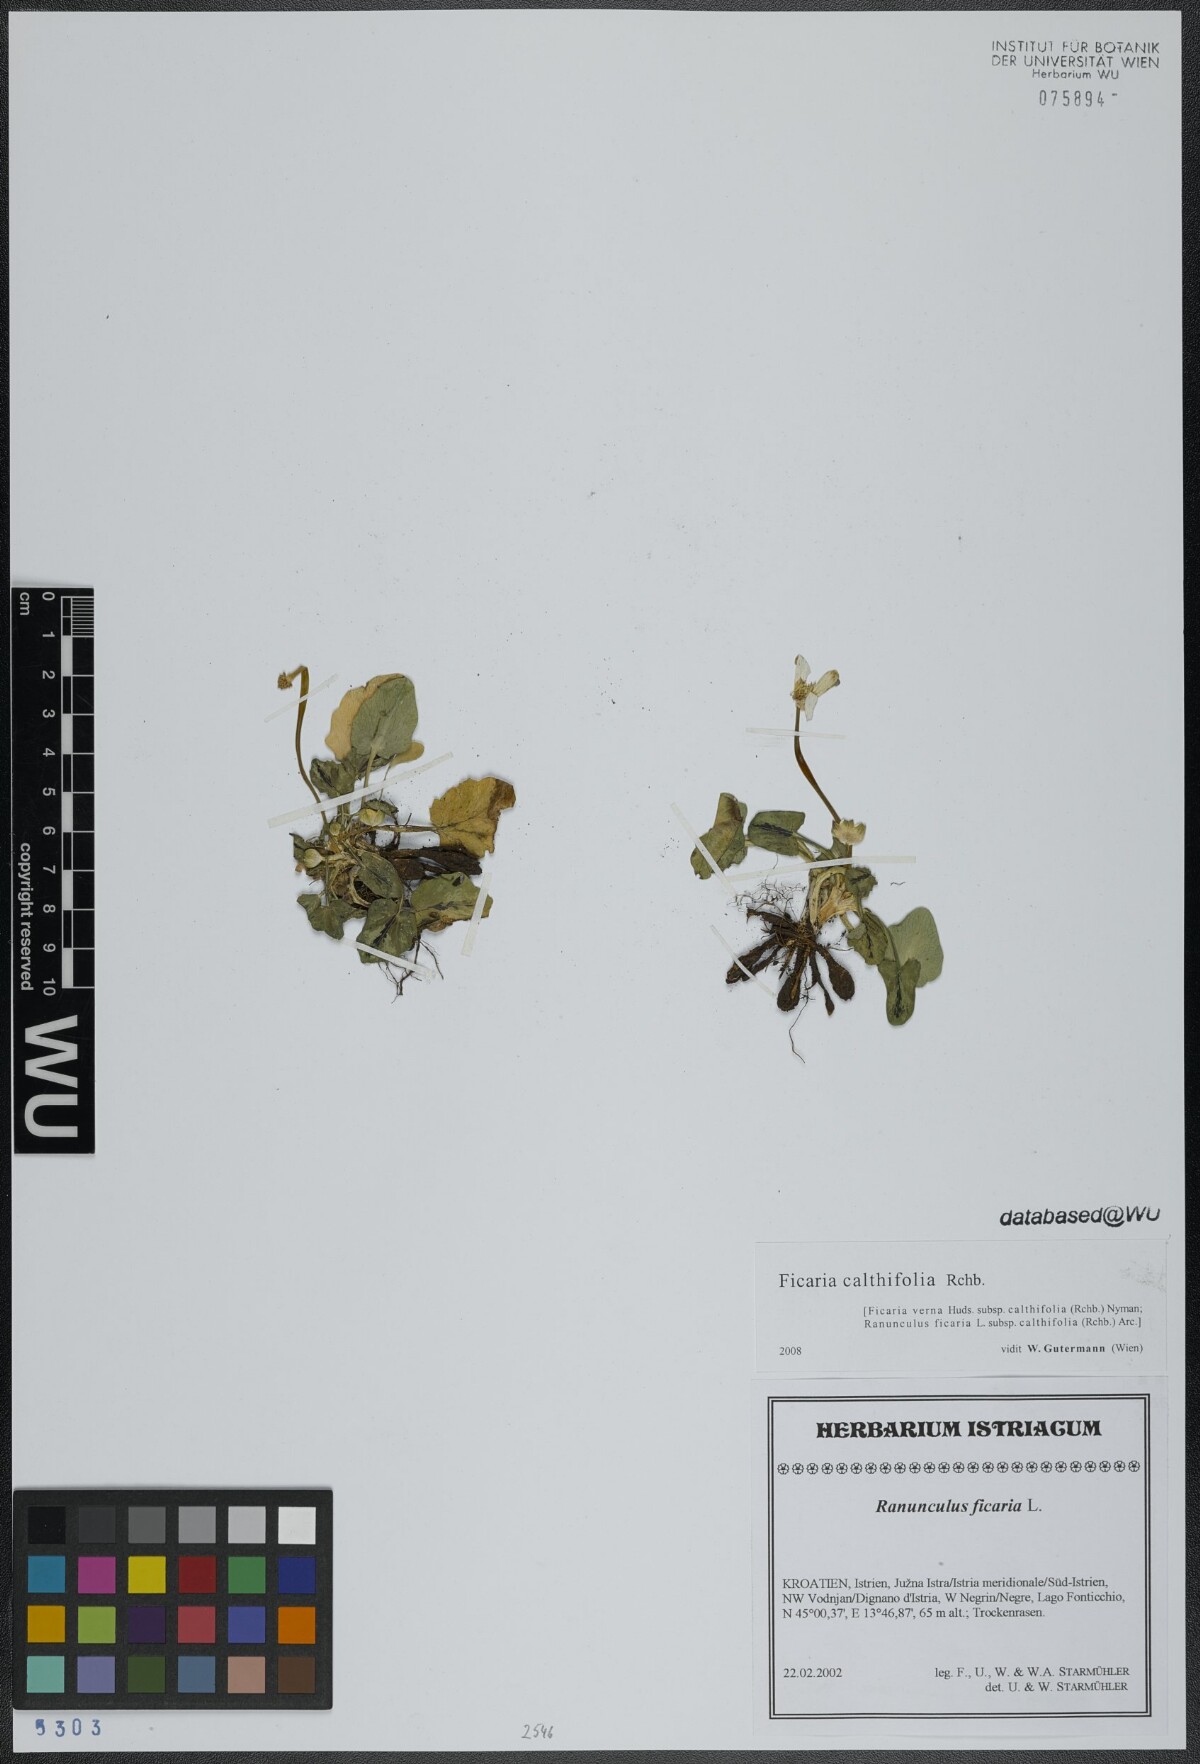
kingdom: Plantae
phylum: Tracheophyta
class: Magnoliopsida
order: Ranunculales
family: Ranunculaceae
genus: Ficaria
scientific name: Ficaria calthifolia
